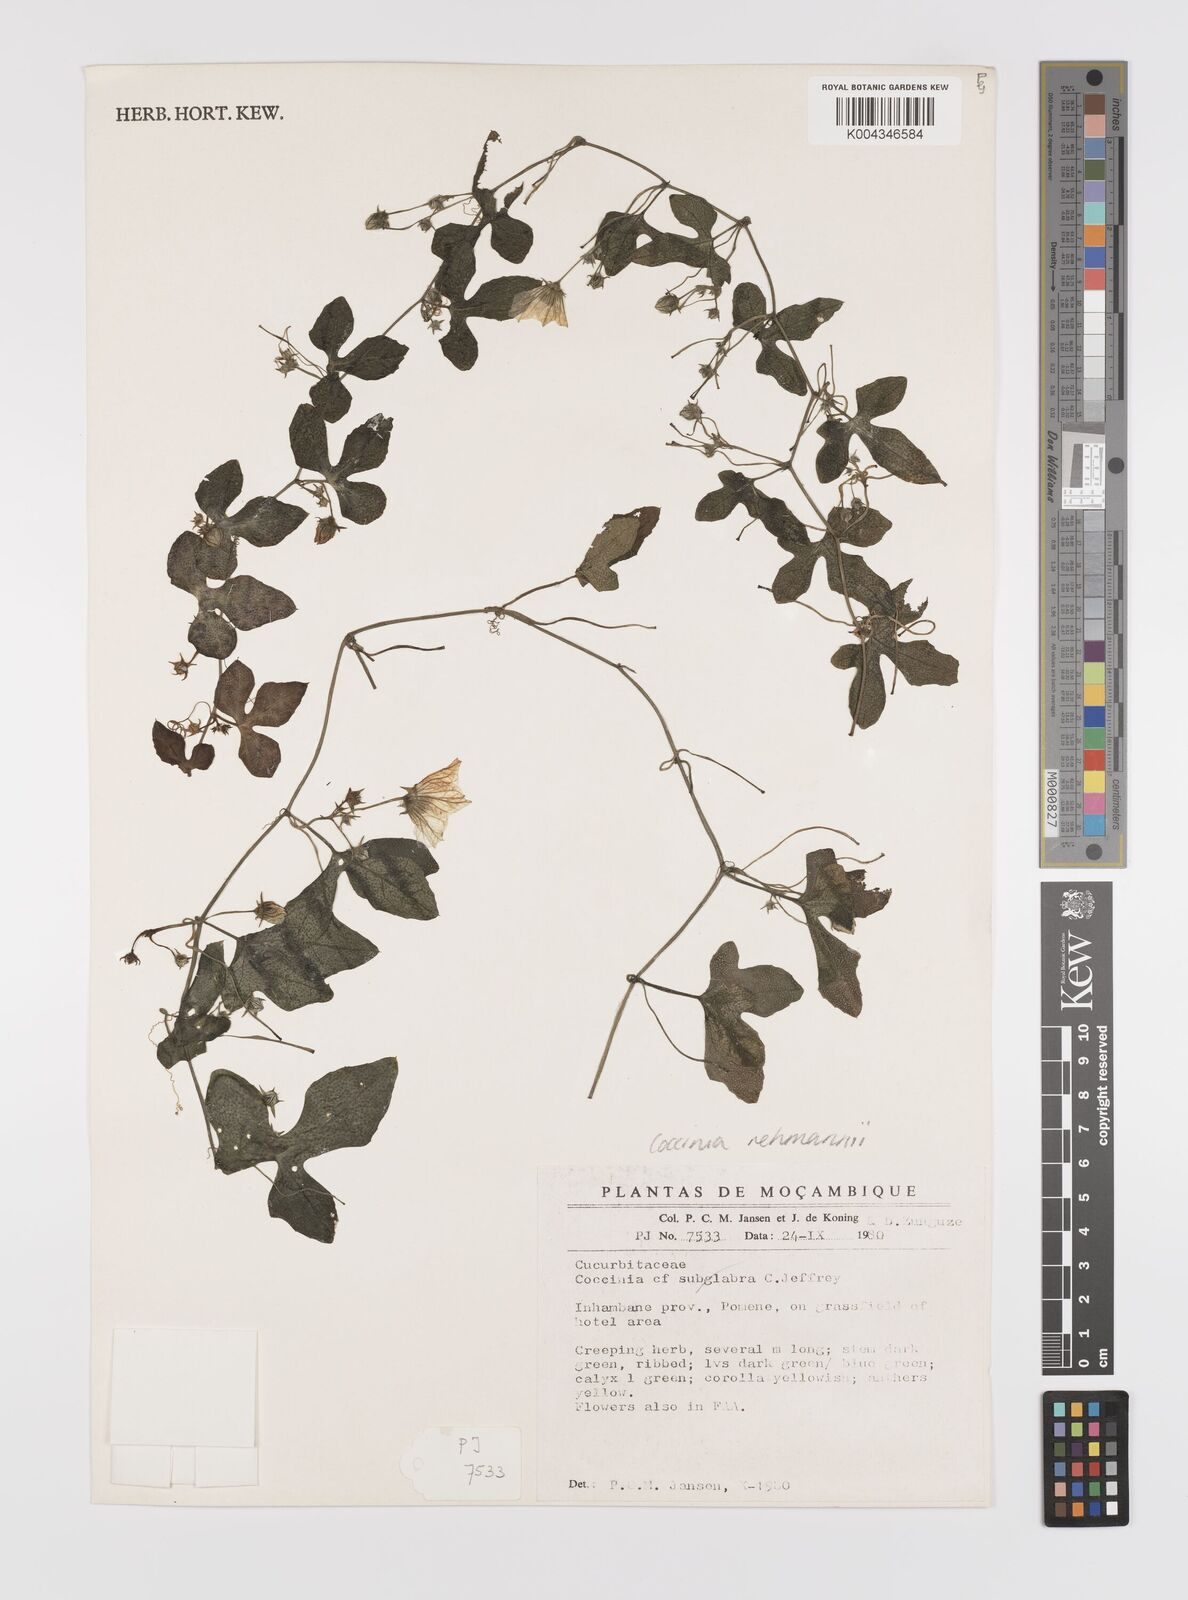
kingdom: Plantae
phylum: Tracheophyta
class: Magnoliopsida
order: Cucurbitales
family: Cucurbitaceae
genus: Coccinia
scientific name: Coccinia rehmannii
